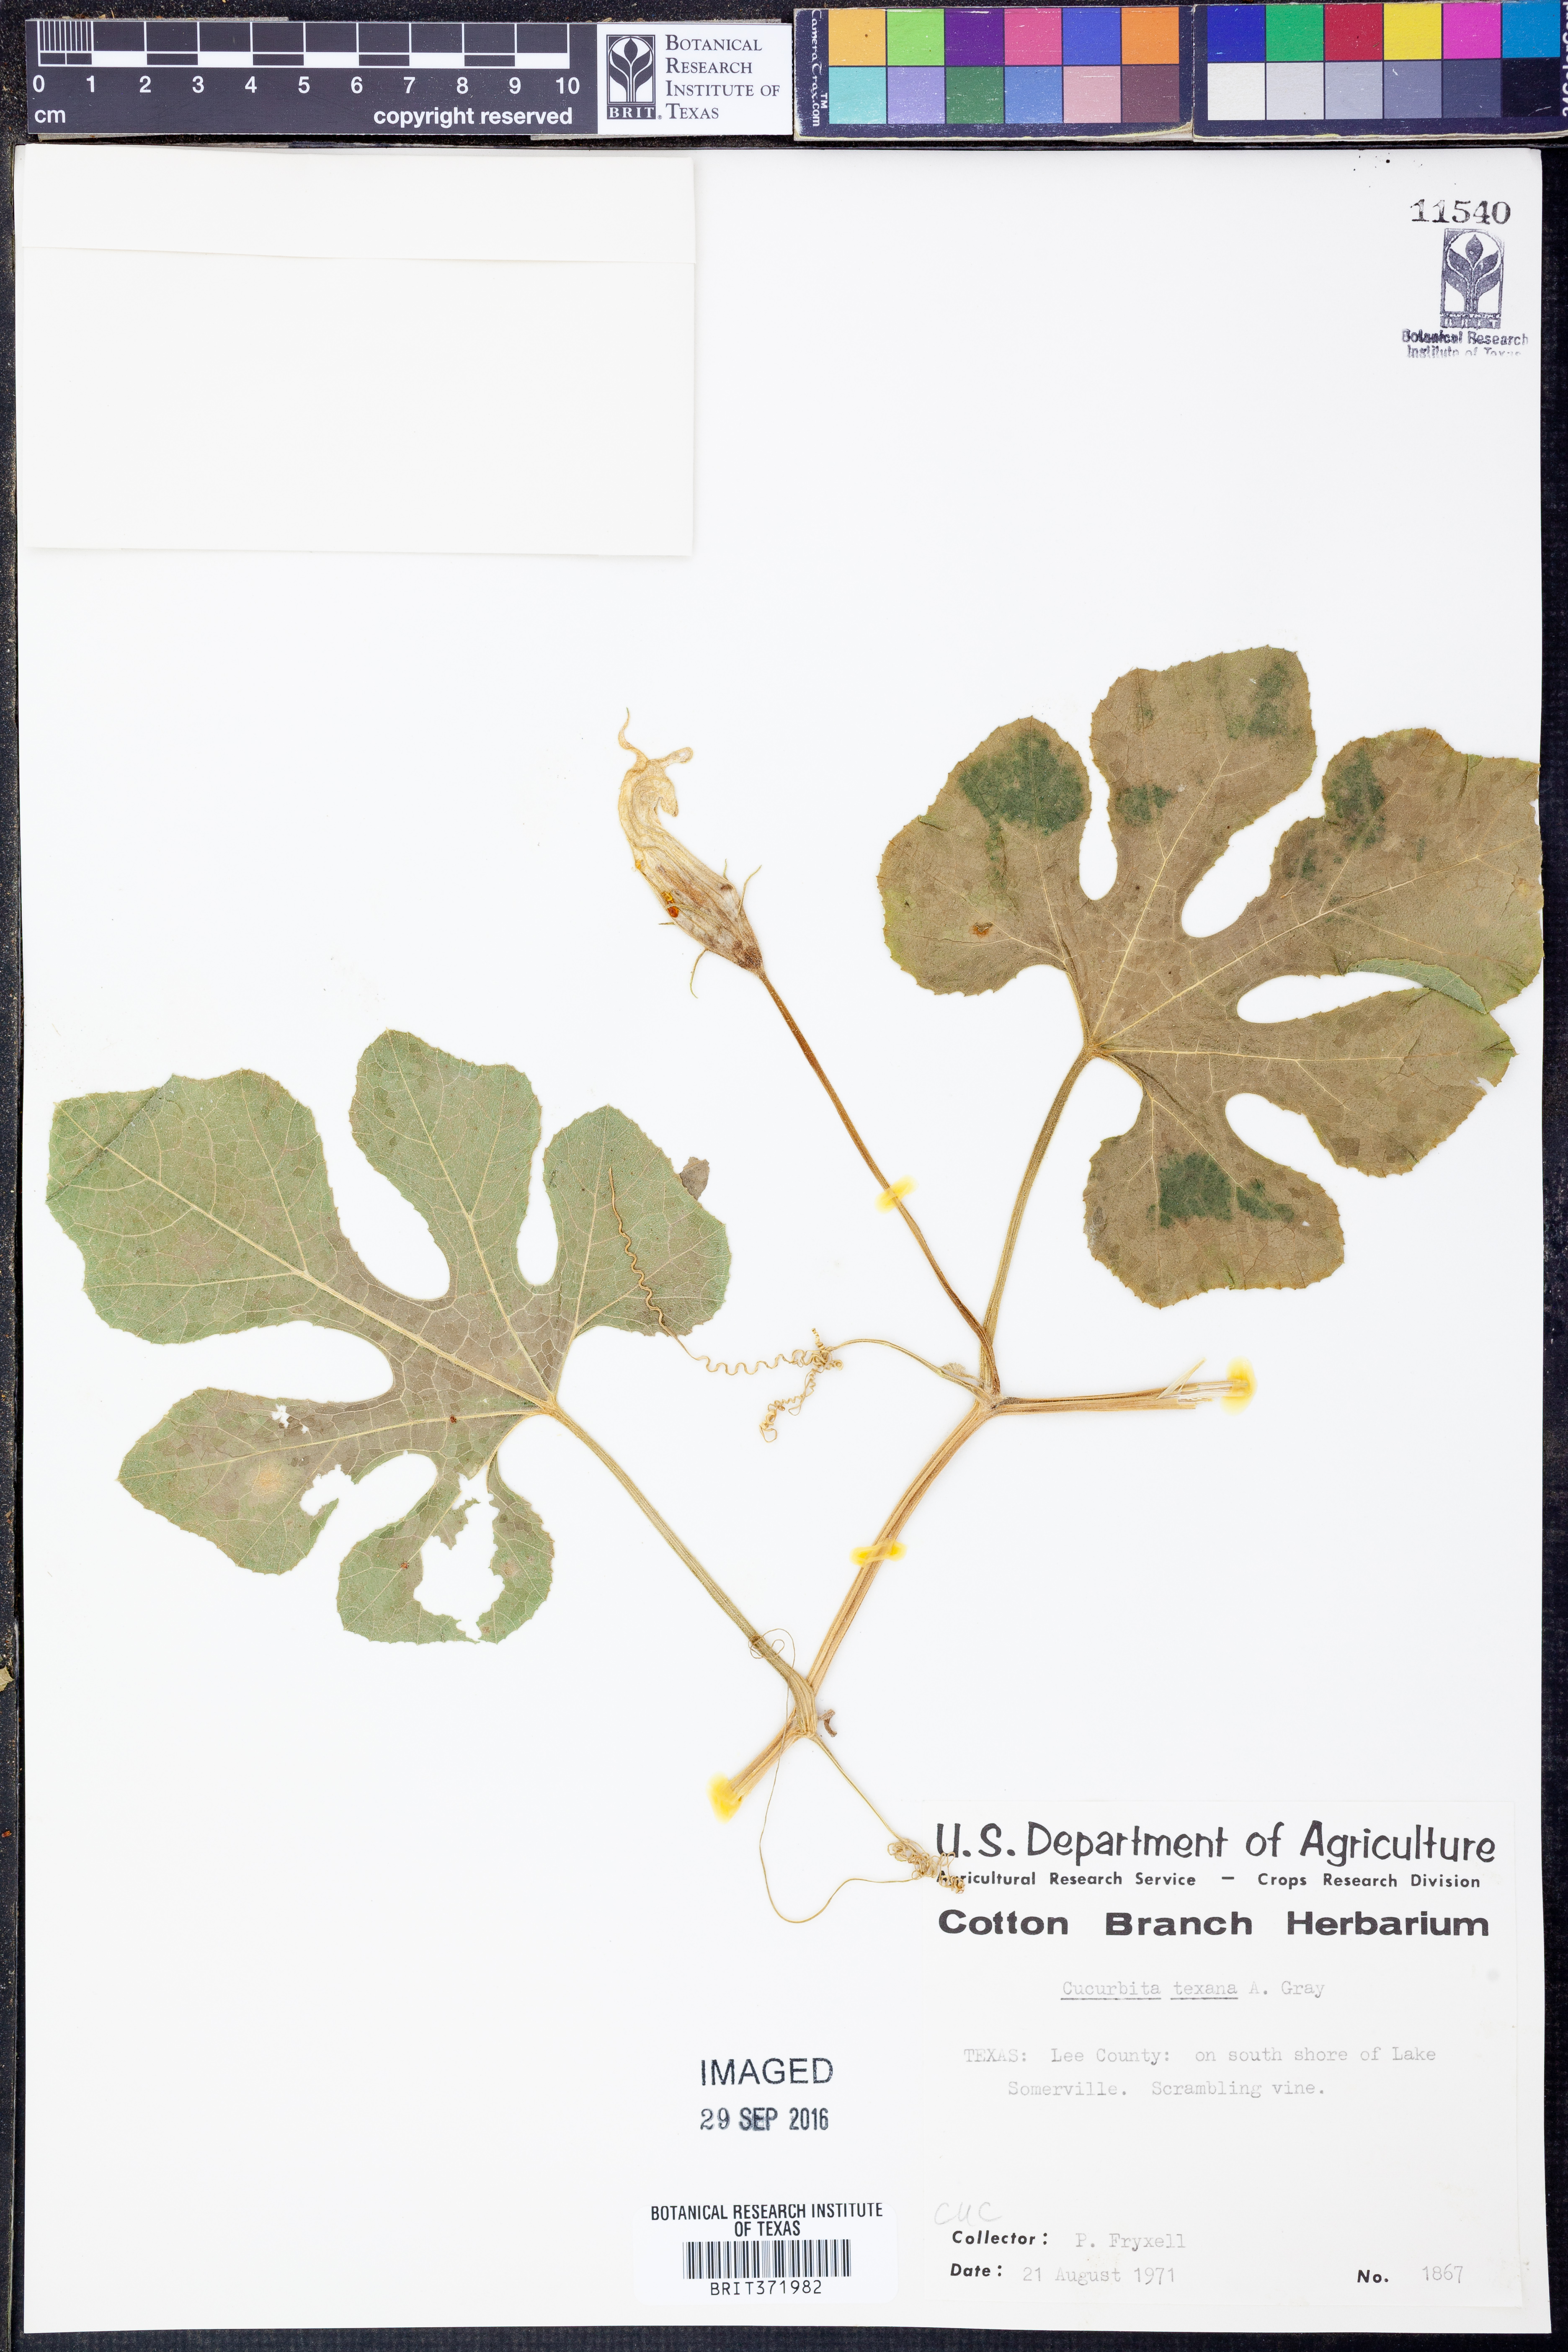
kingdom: Plantae
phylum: Tracheophyta
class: Magnoliopsida
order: Cucurbitales
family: Cucurbitaceae
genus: Cucurbita
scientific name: Cucurbita melopepo
